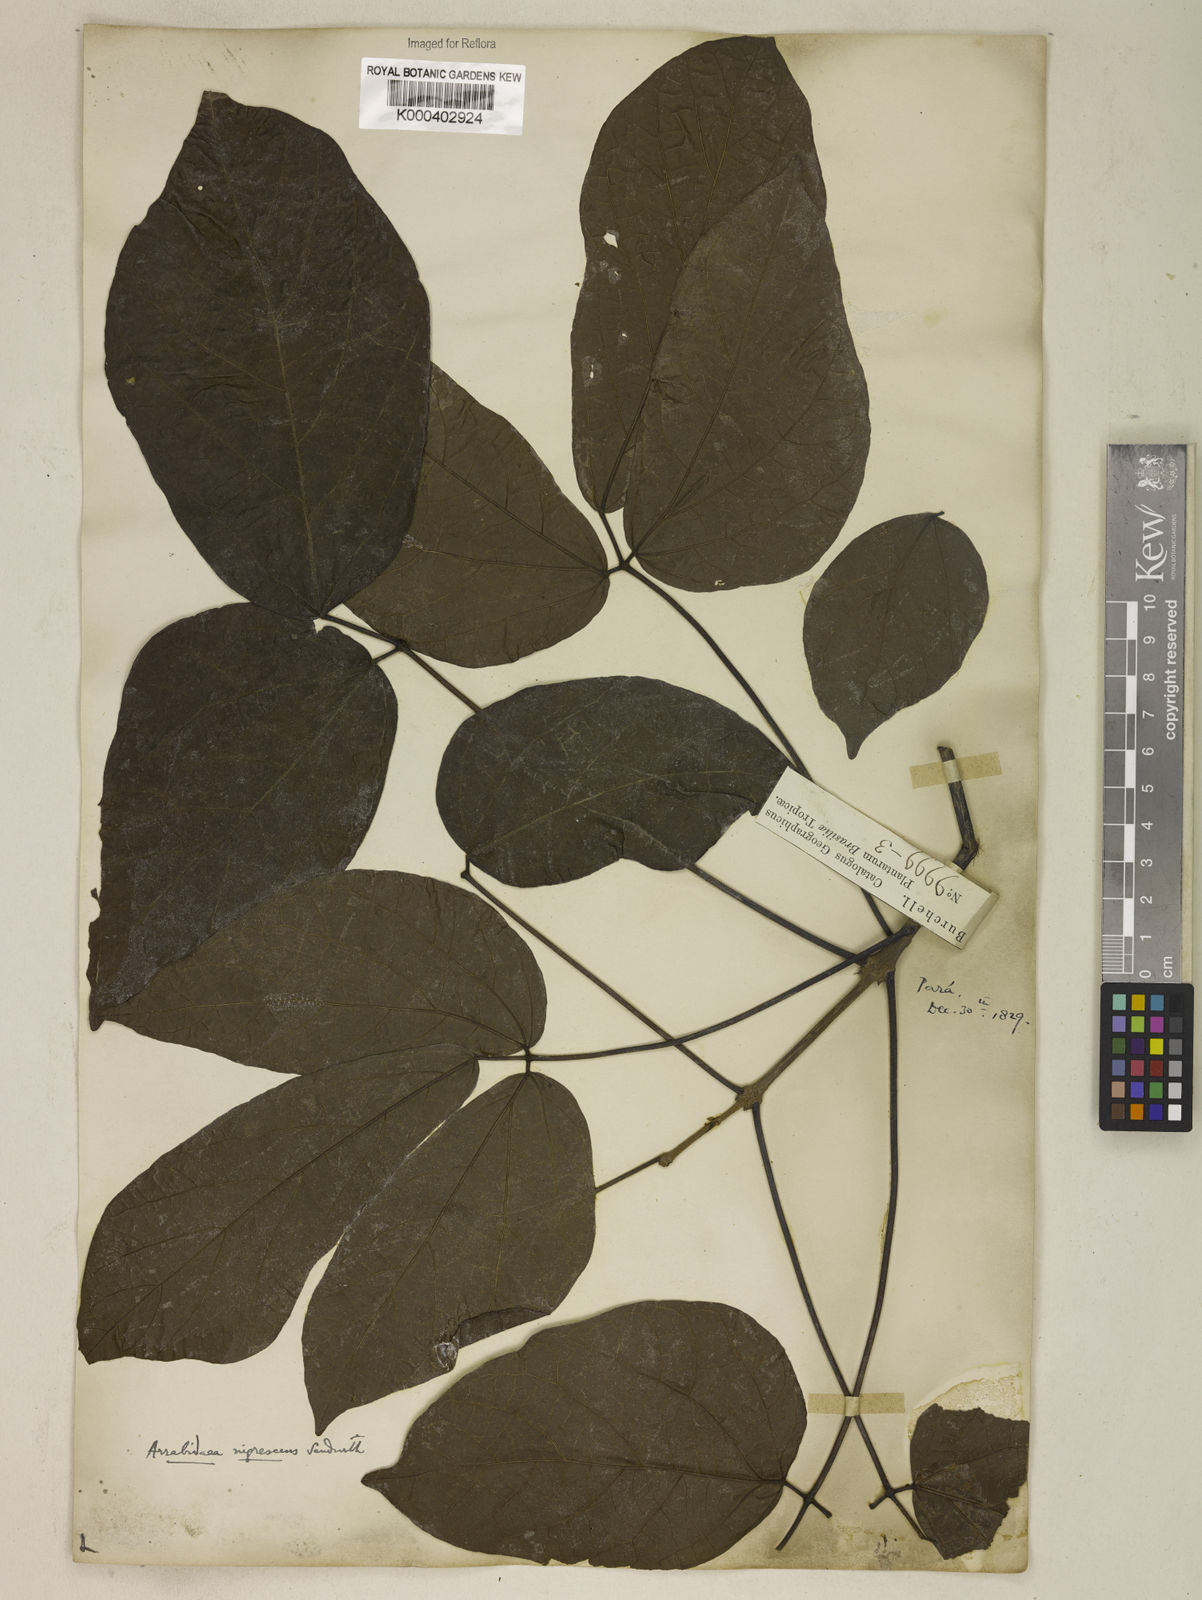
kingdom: Plantae
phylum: Tracheophyta
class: Magnoliopsida
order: Lamiales
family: Bignoniaceae
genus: Fridericia
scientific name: Fridericia nigrescens
